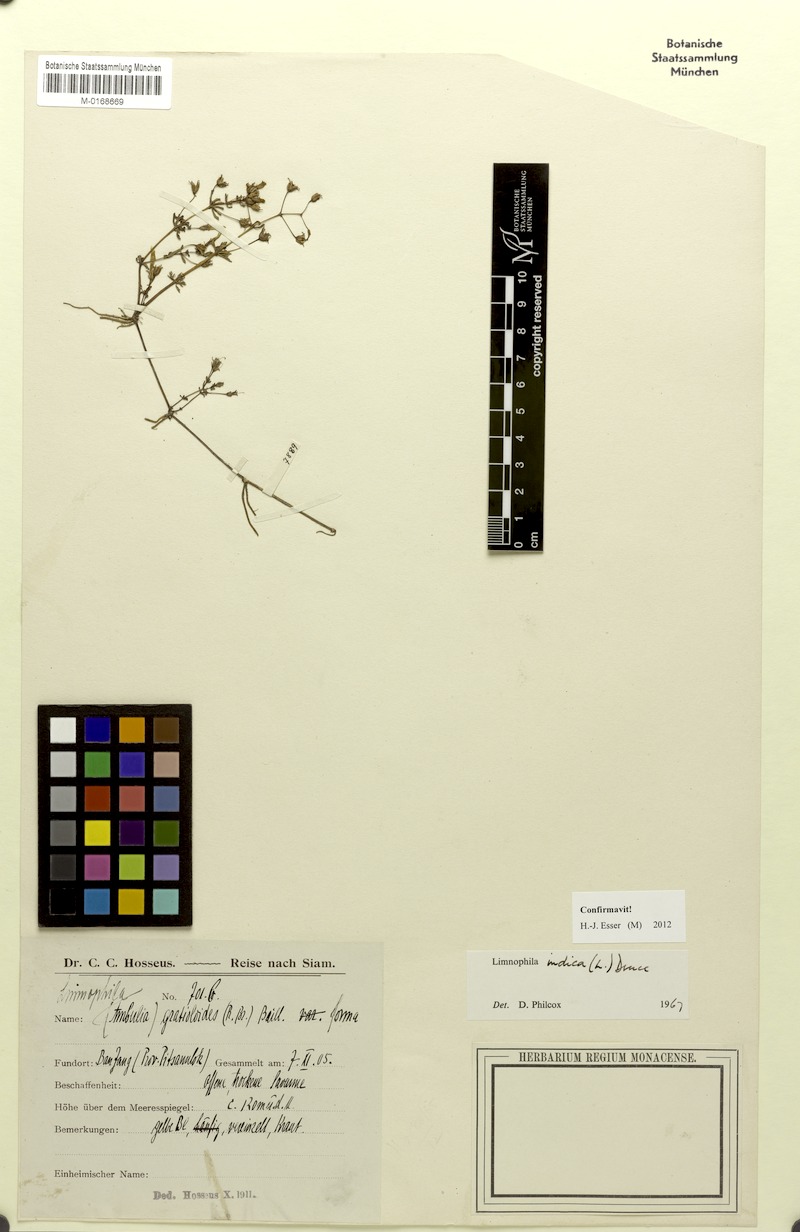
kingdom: Plantae
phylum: Tracheophyta
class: Magnoliopsida
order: Lamiales
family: Plantaginaceae
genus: Limnophila
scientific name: Limnophila indica
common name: Indian marshweed
